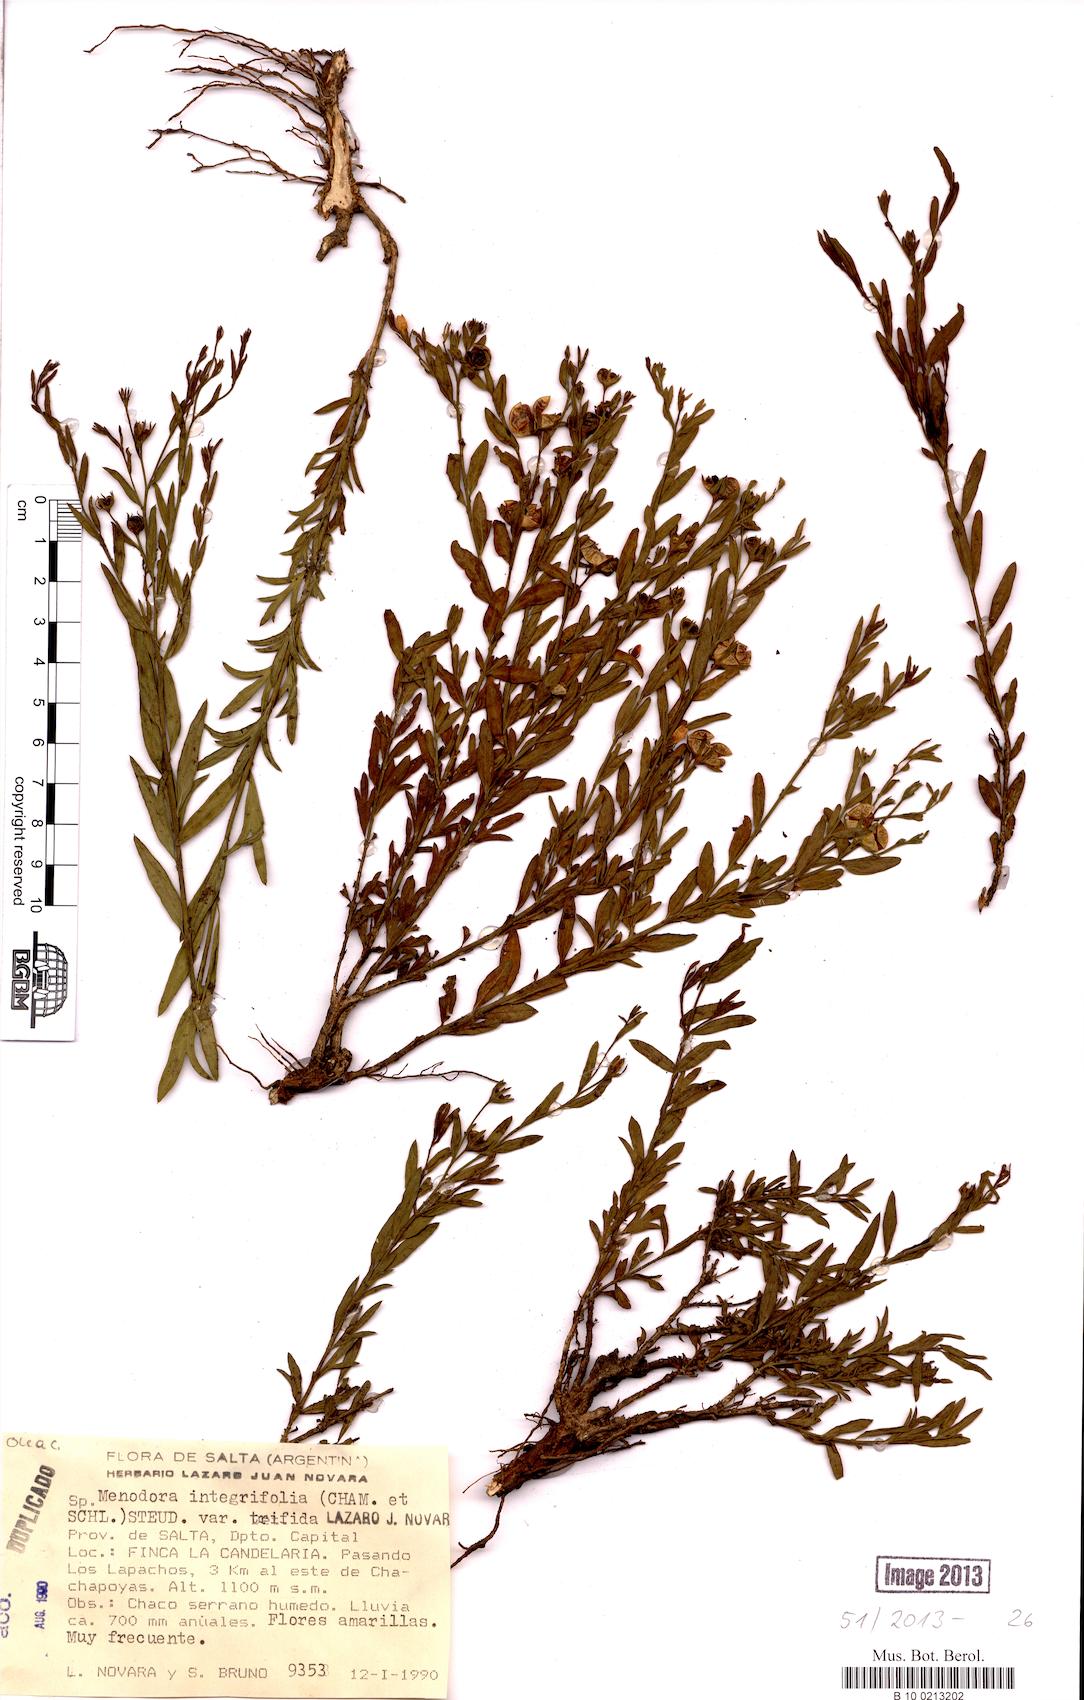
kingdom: Plantae
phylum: Tracheophyta
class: Magnoliopsida
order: Lamiales
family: Oleaceae
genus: Menodora
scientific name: Menodora integrifolia
